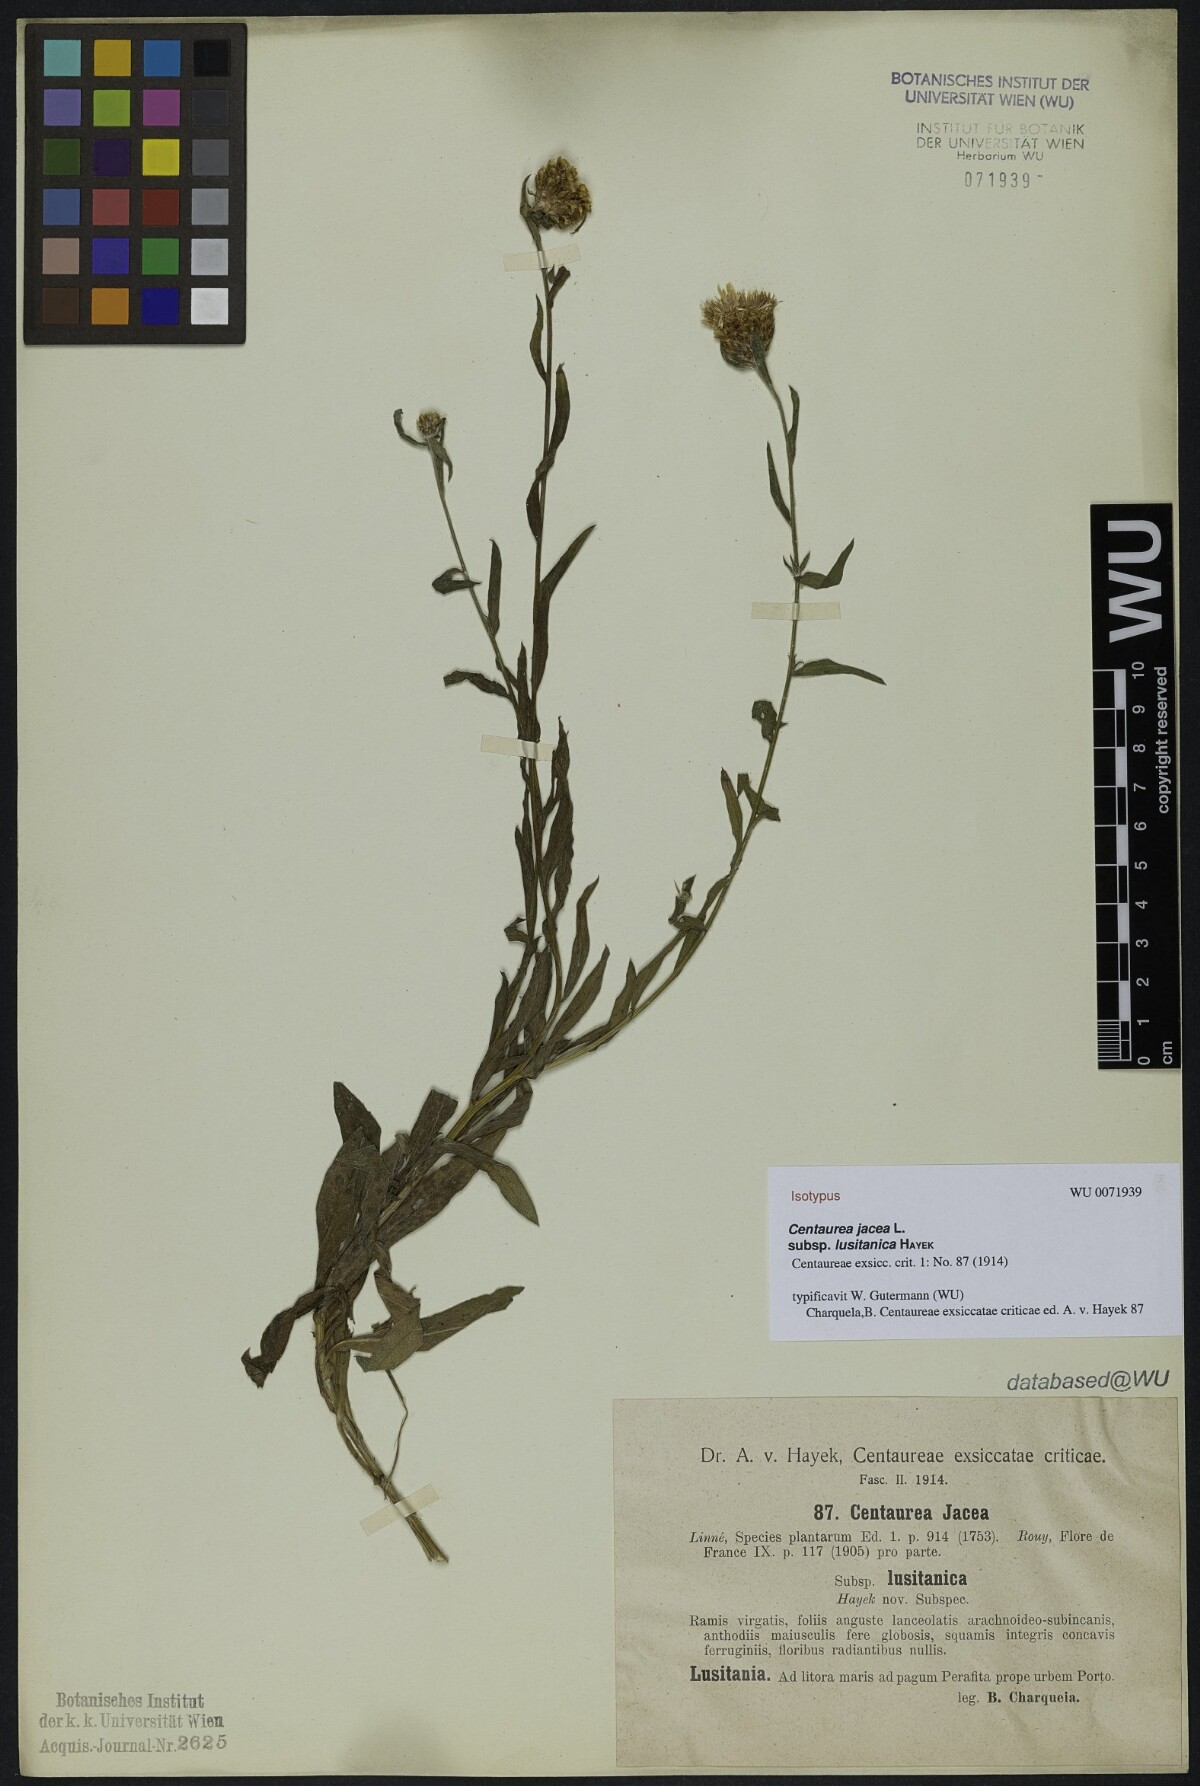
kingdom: Plantae
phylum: Tracheophyta
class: Magnoliopsida
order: Asterales
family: Asteraceae
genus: Centaurea
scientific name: Centaurea pannonica
